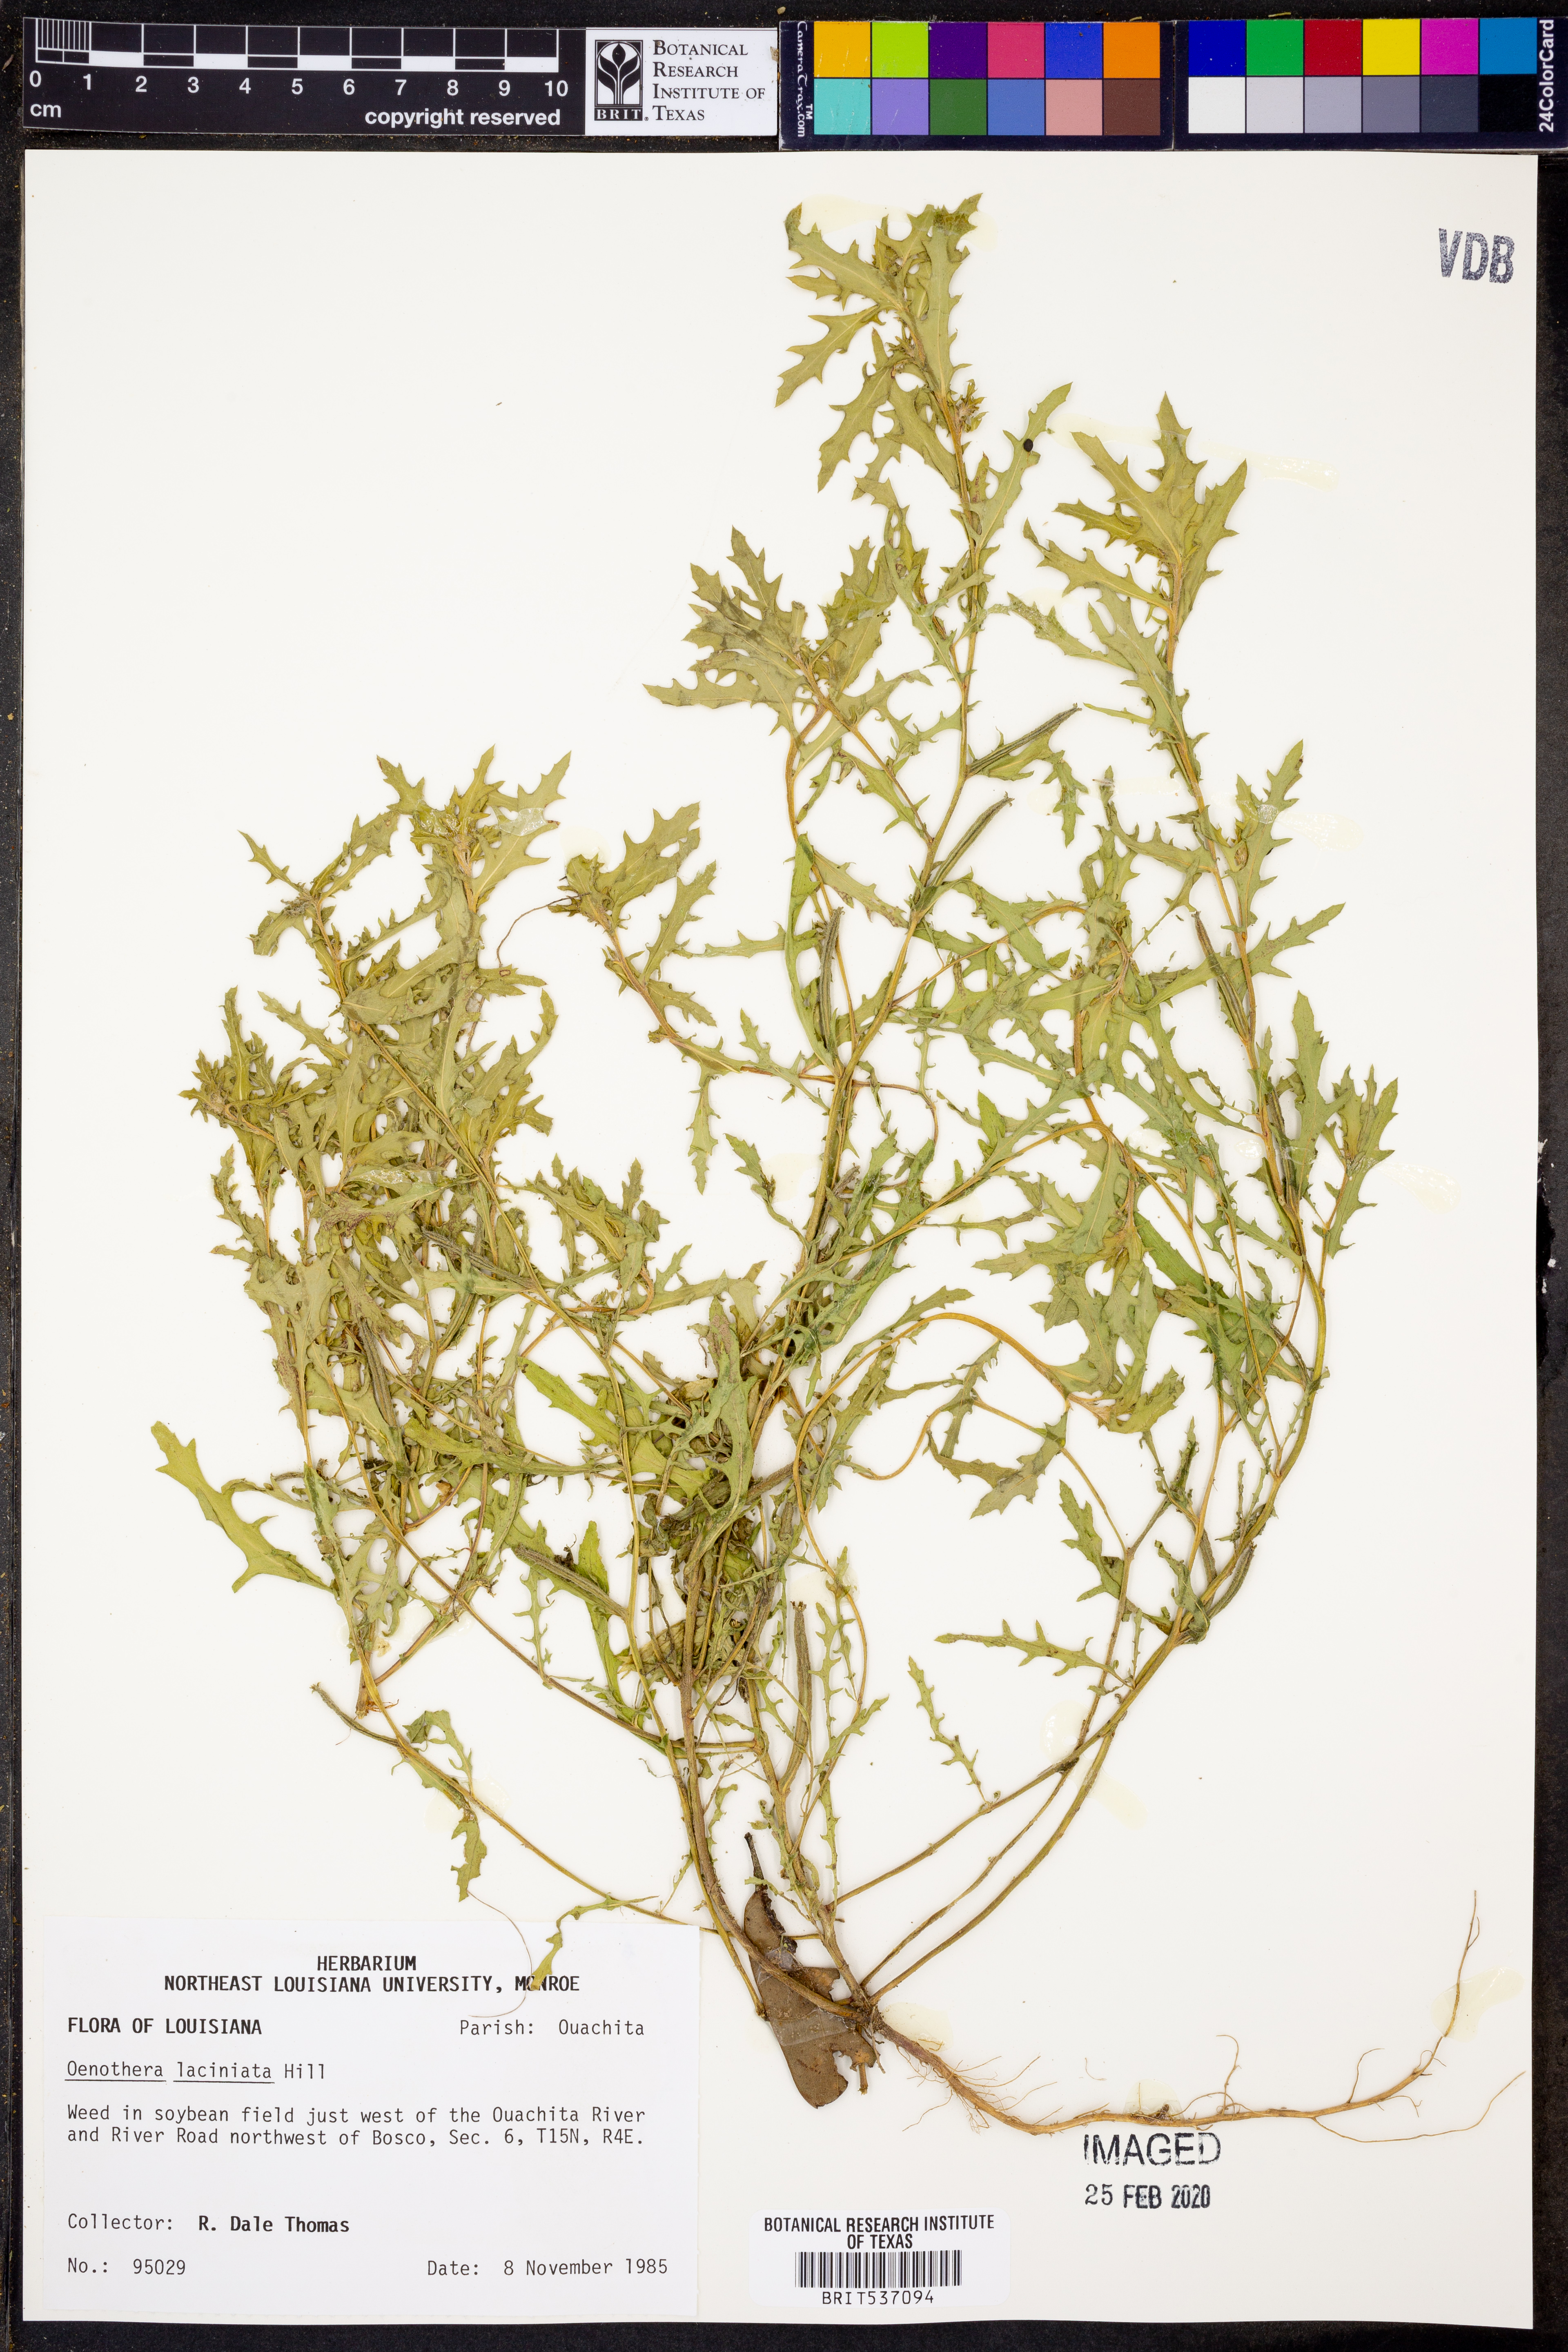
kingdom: Plantae
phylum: Tracheophyta
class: Magnoliopsida
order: Myrtales
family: Onagraceae
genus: Oenothera
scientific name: Oenothera laciniata
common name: Cut-leaved evening-primrose
